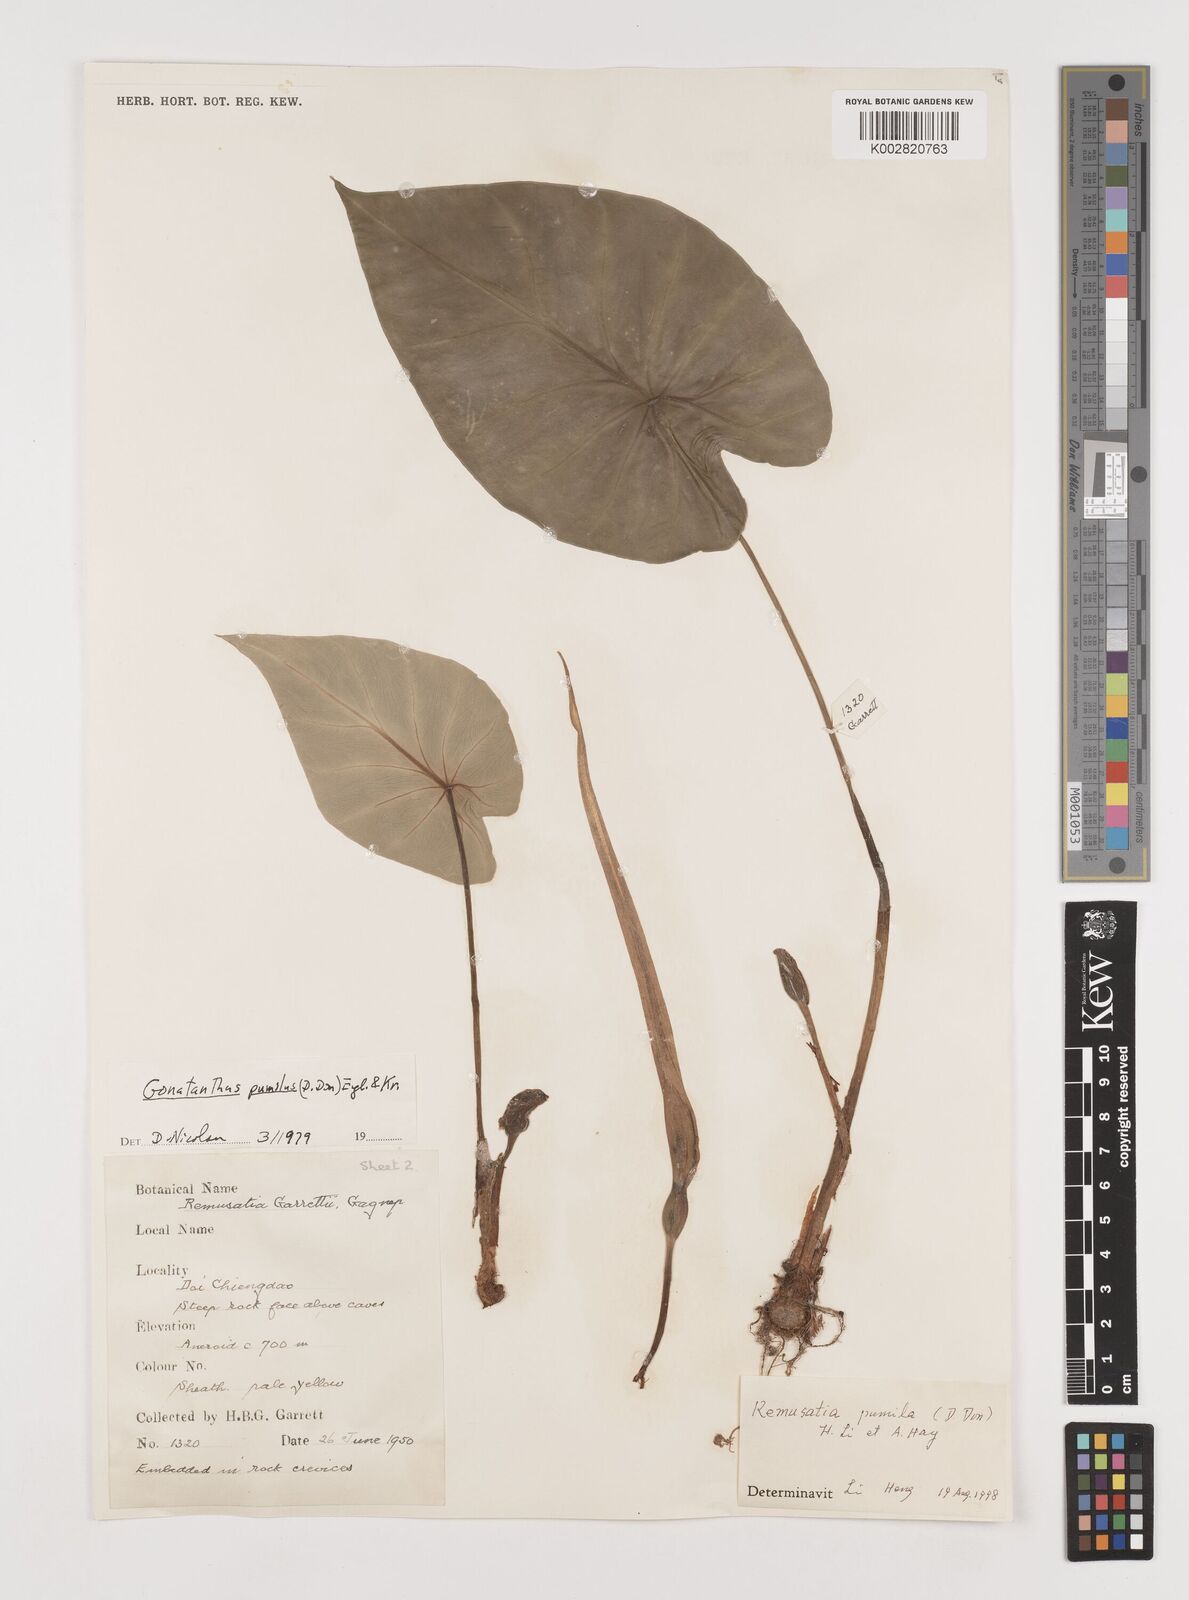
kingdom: Plantae
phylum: Tracheophyta
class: Liliopsida
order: Alismatales
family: Araceae
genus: Remusatia
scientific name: Remusatia pumila
